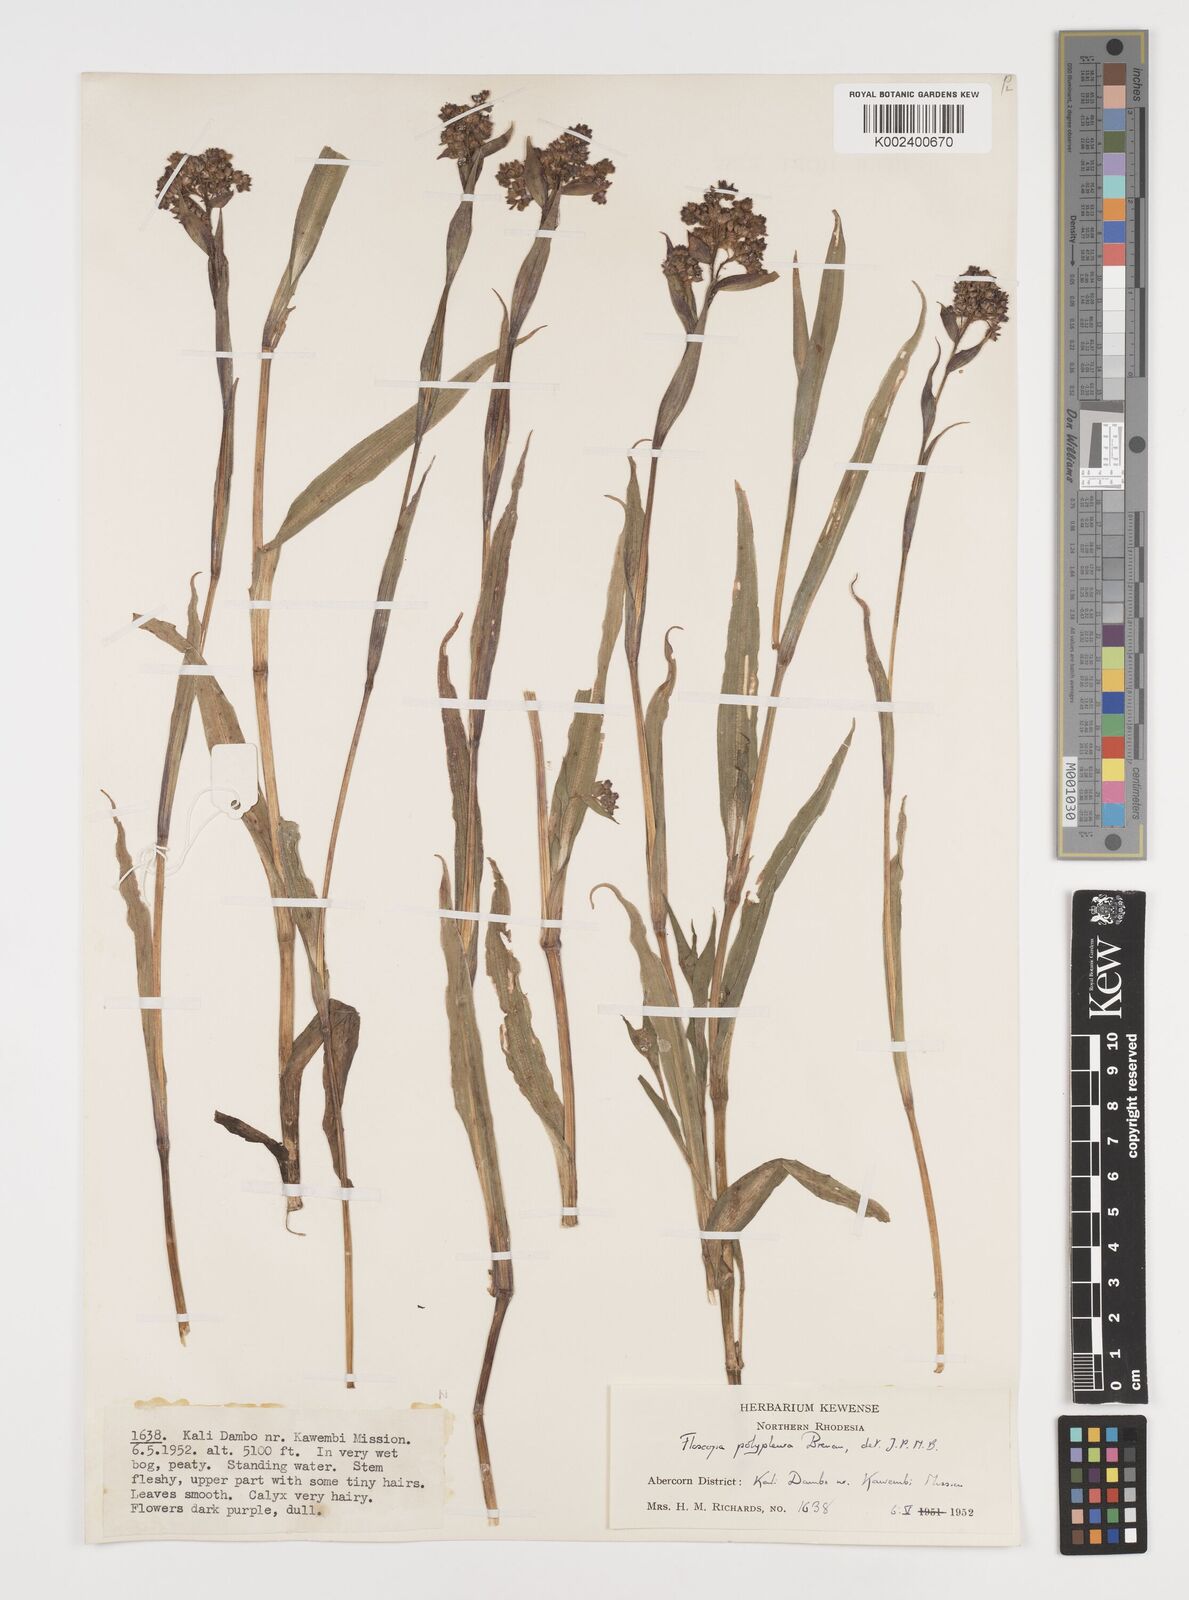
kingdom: Plantae
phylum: Tracheophyta
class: Liliopsida
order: Commelinales
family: Commelinaceae
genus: Floscopa
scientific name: Floscopa polypleura
